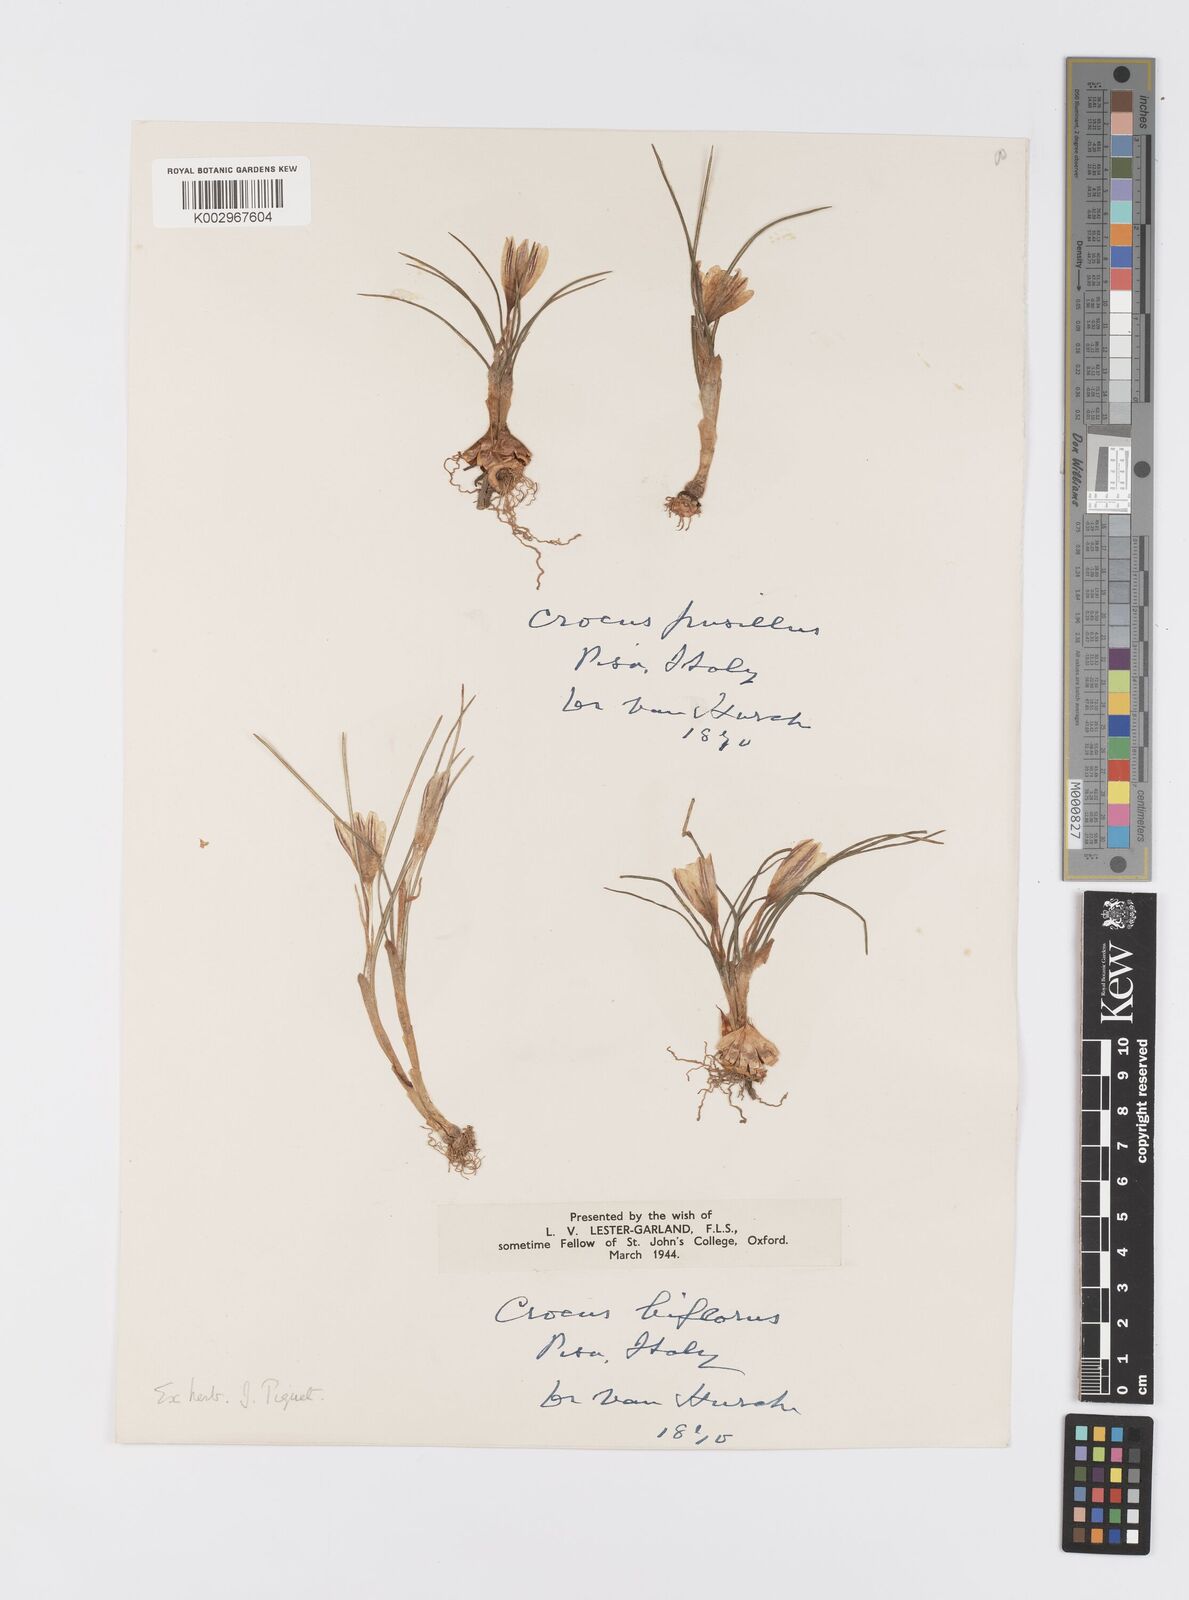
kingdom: Plantae
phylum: Tracheophyta
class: Liliopsida
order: Asparagales
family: Iridaceae
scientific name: Iridaceae
